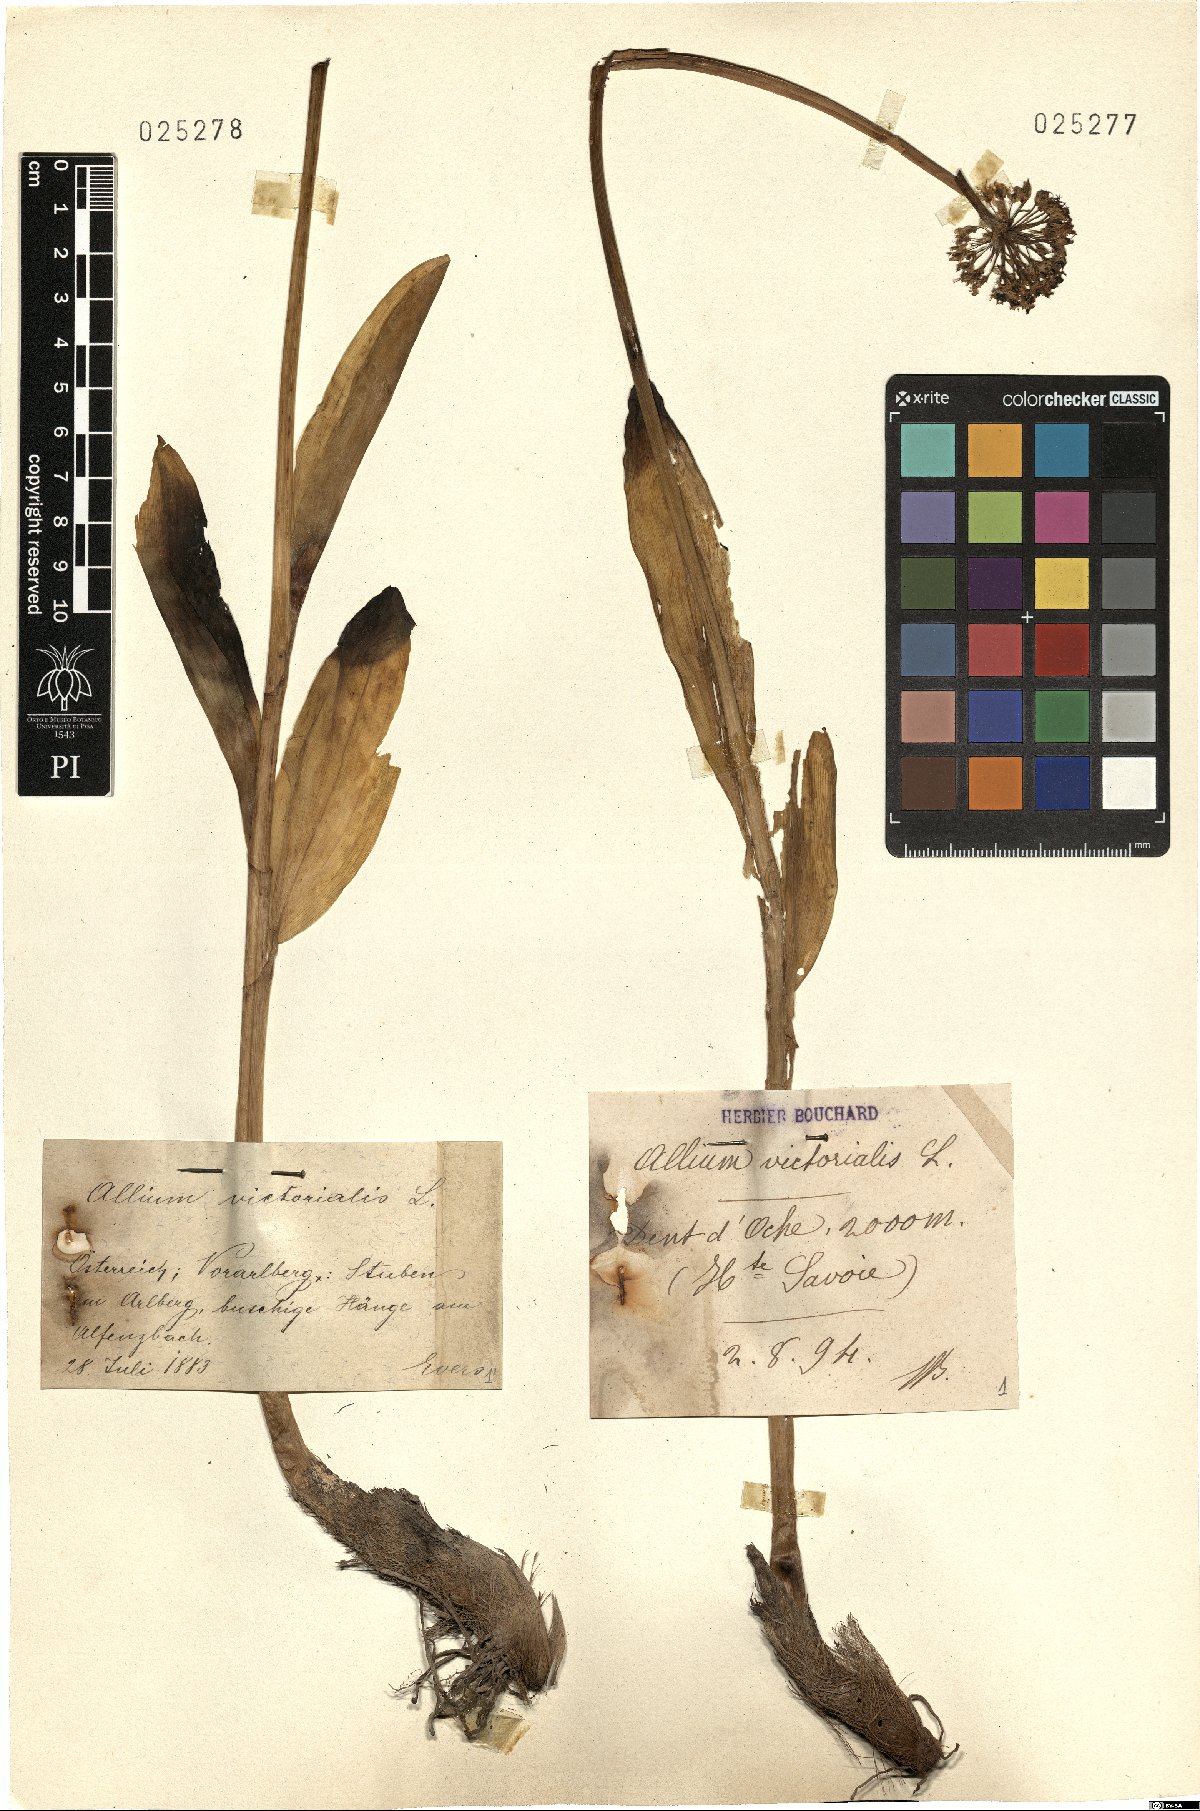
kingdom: Plantae
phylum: Tracheophyta
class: Liliopsida
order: Asparagales
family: Amaryllidaceae
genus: Allium
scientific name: Allium victorialis
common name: Alpine leek
